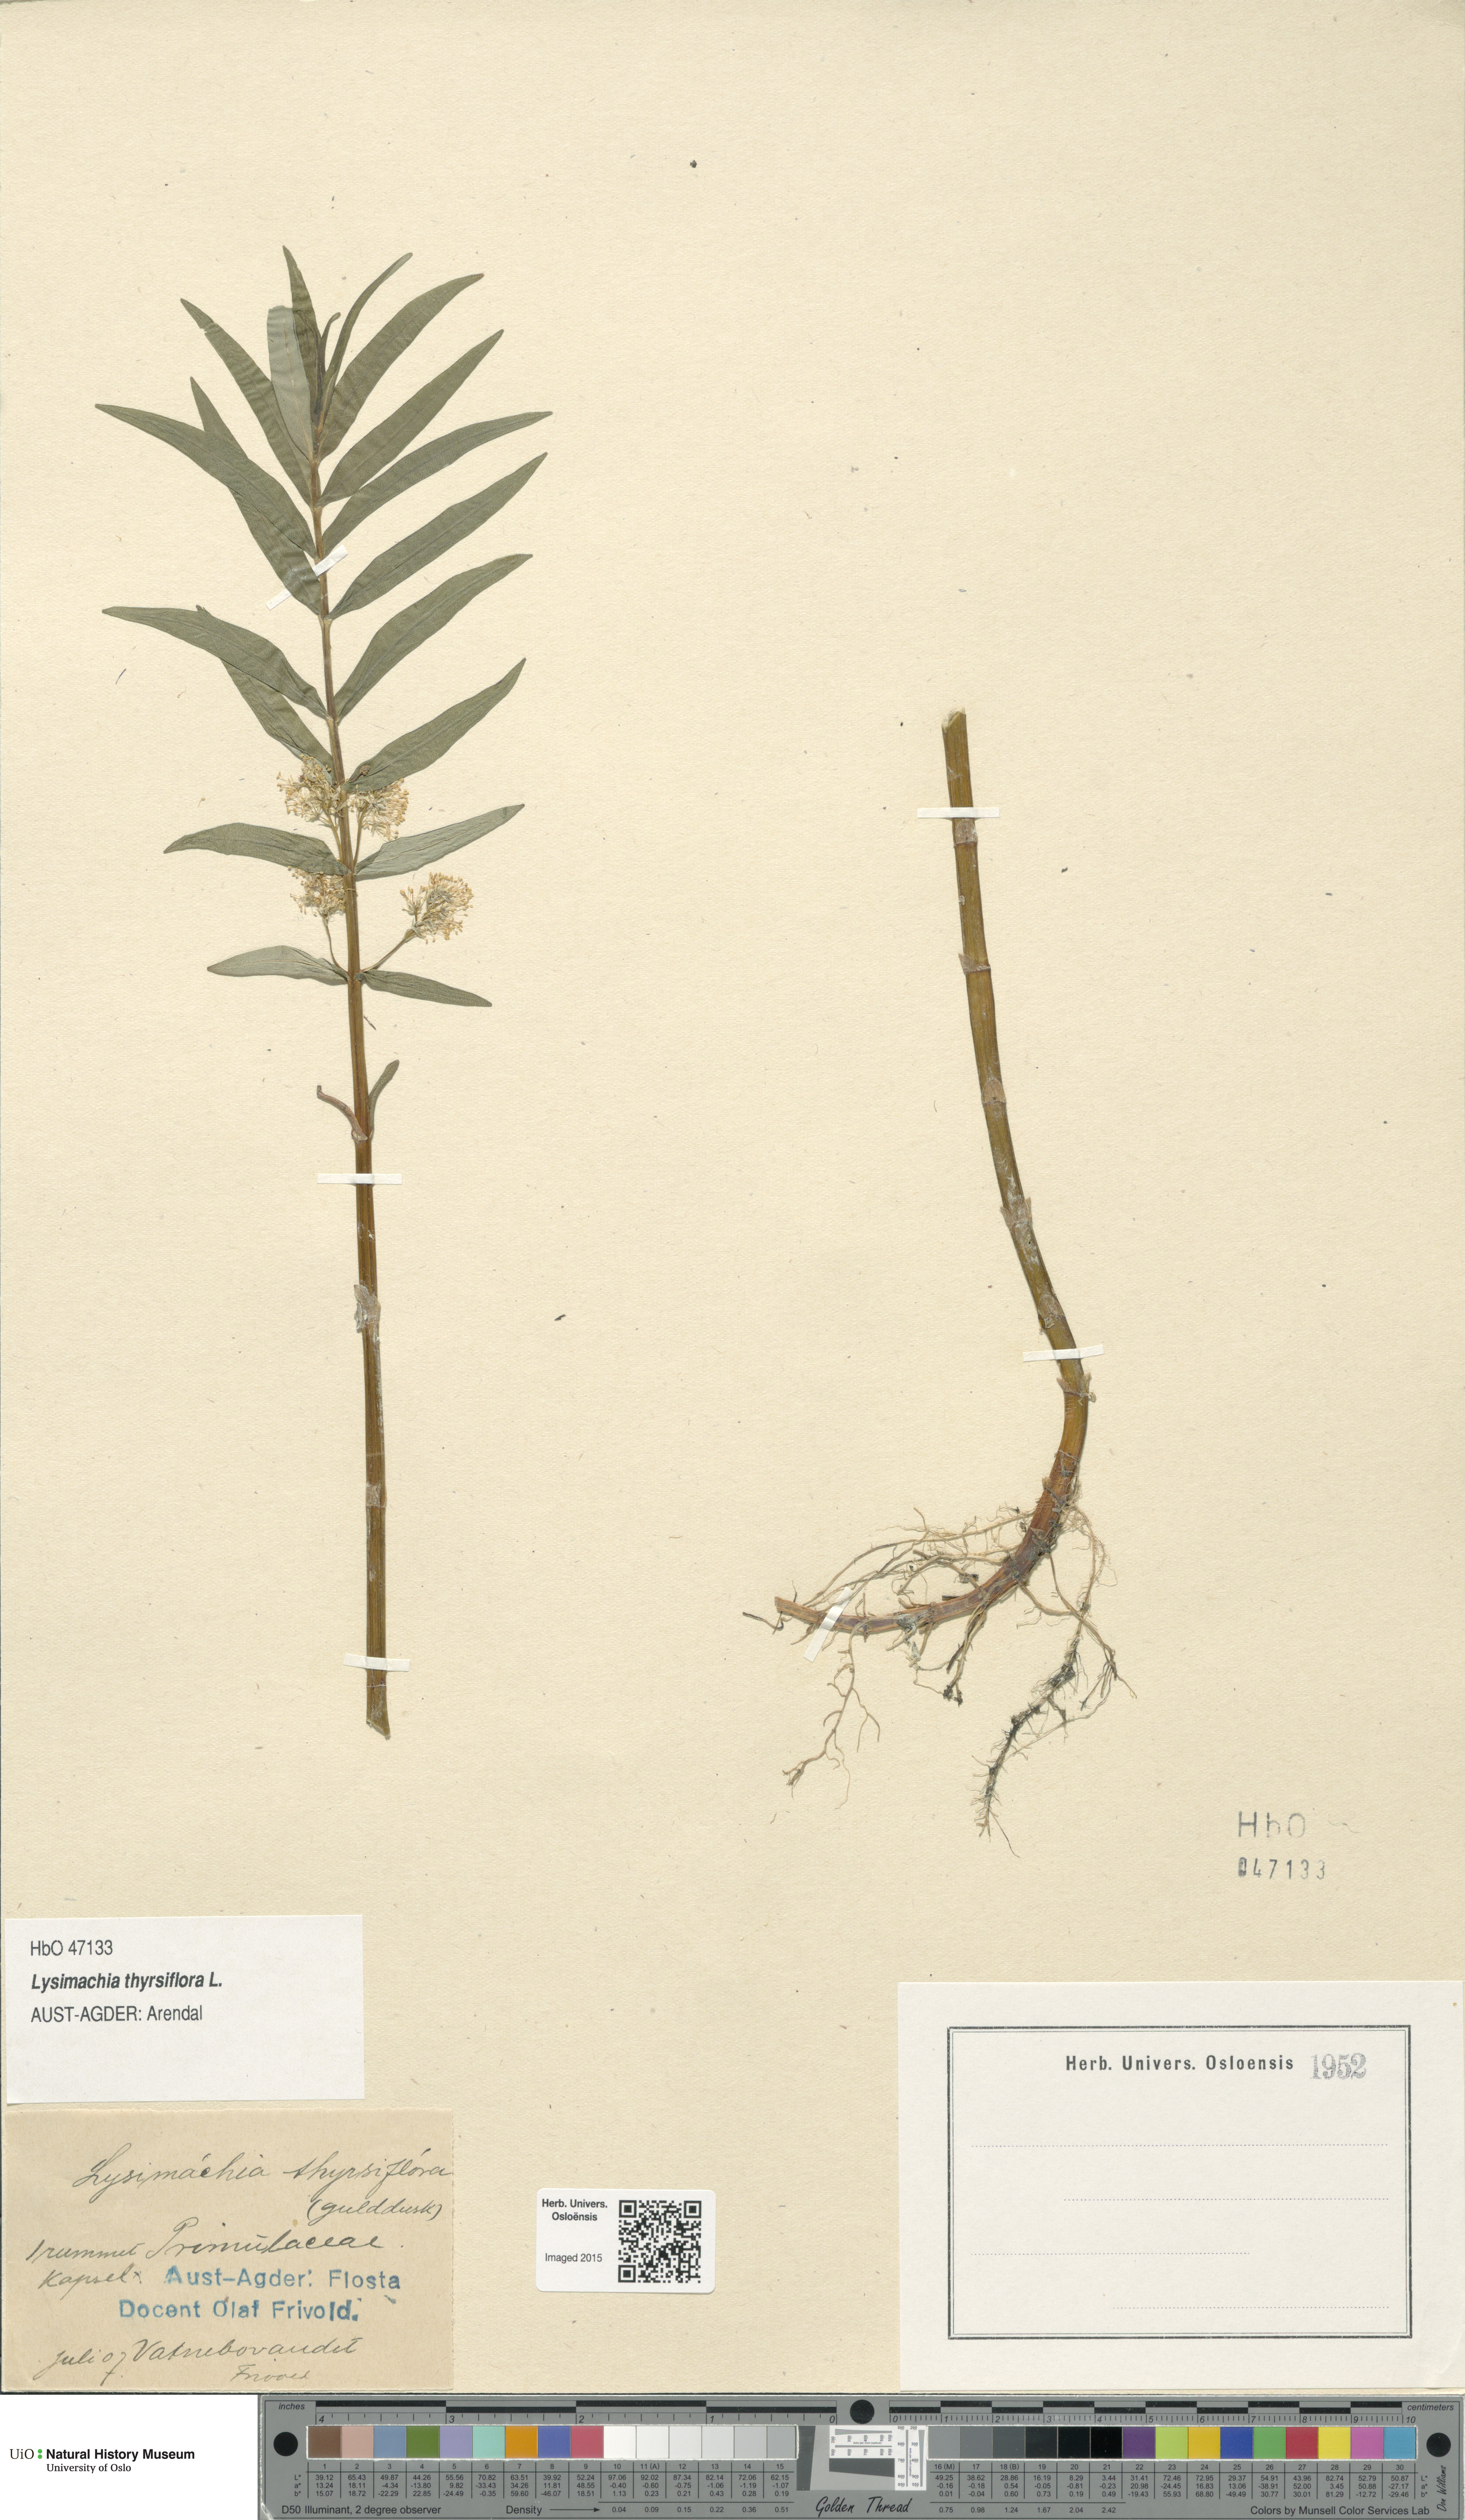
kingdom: Plantae
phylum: Tracheophyta
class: Magnoliopsida
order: Ericales
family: Primulaceae
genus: Lysimachia
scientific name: Lysimachia thyrsiflora
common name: Tufted loosestrife
